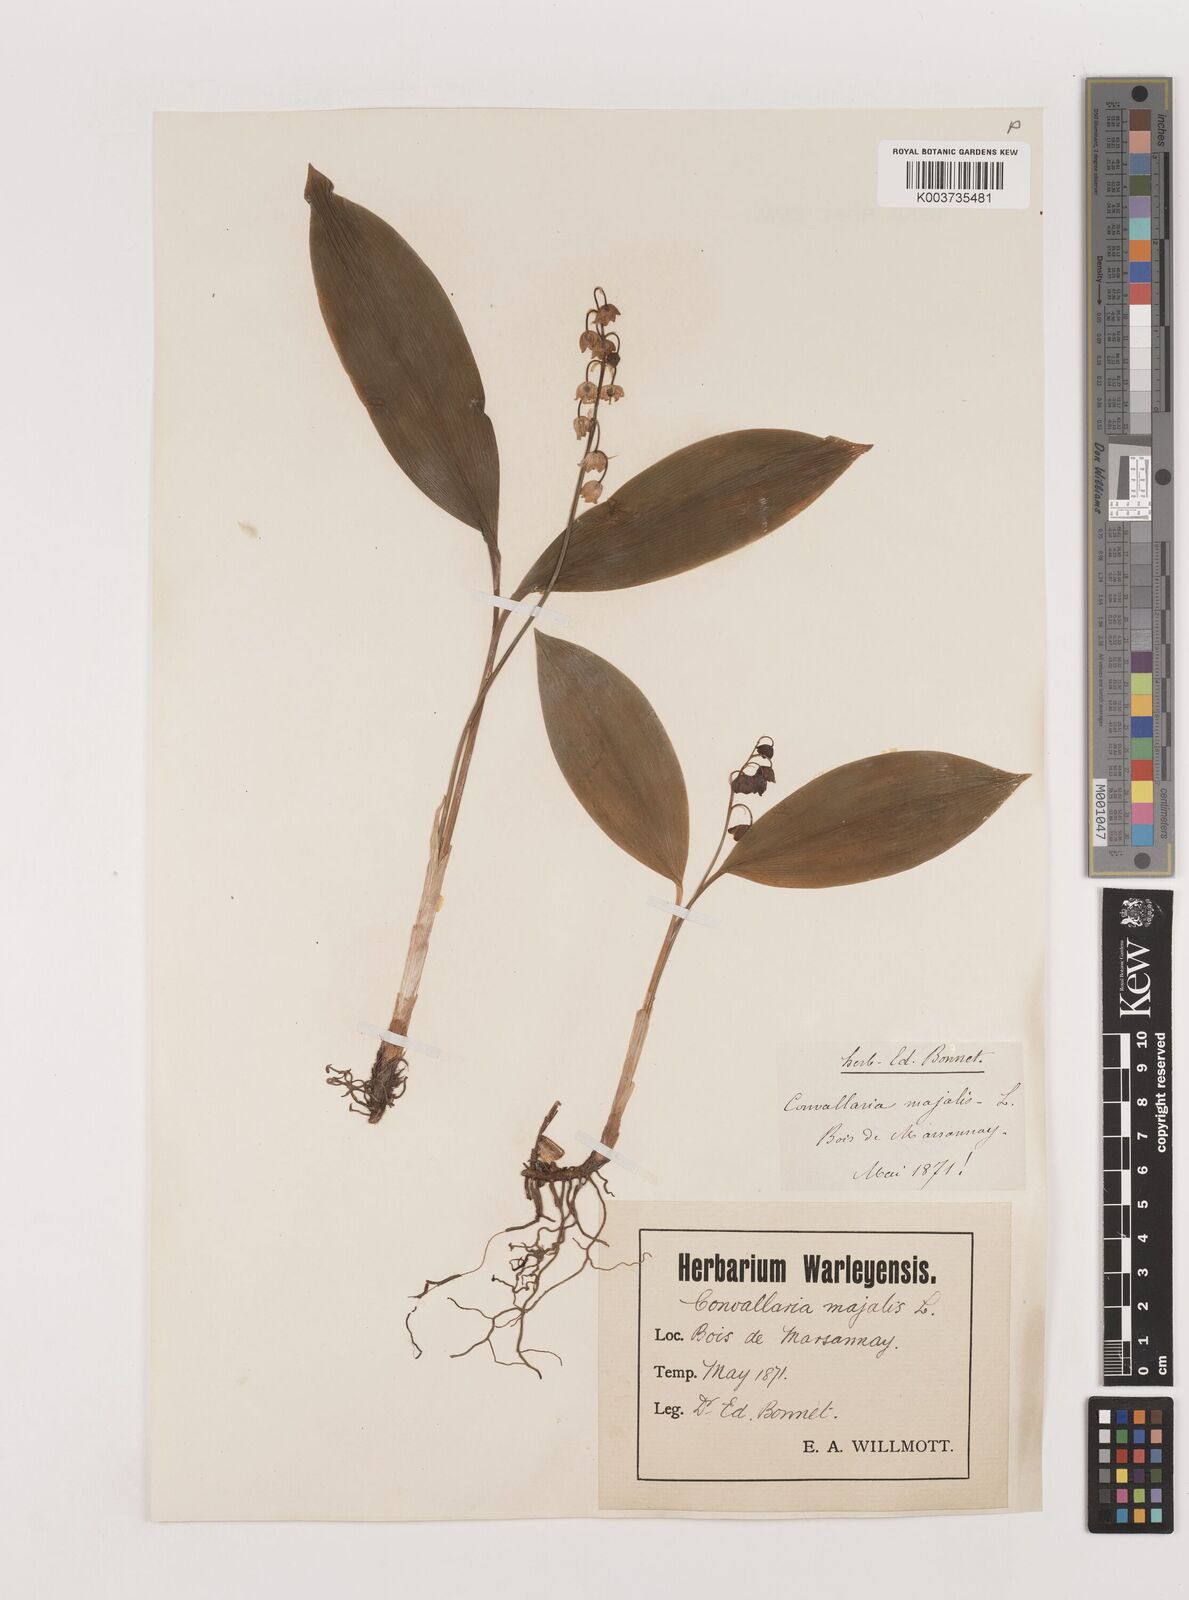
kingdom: Plantae
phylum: Tracheophyta
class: Liliopsida
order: Asparagales
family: Asparagaceae
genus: Convallaria
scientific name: Convallaria majalis
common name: Lily-of-the-valley
